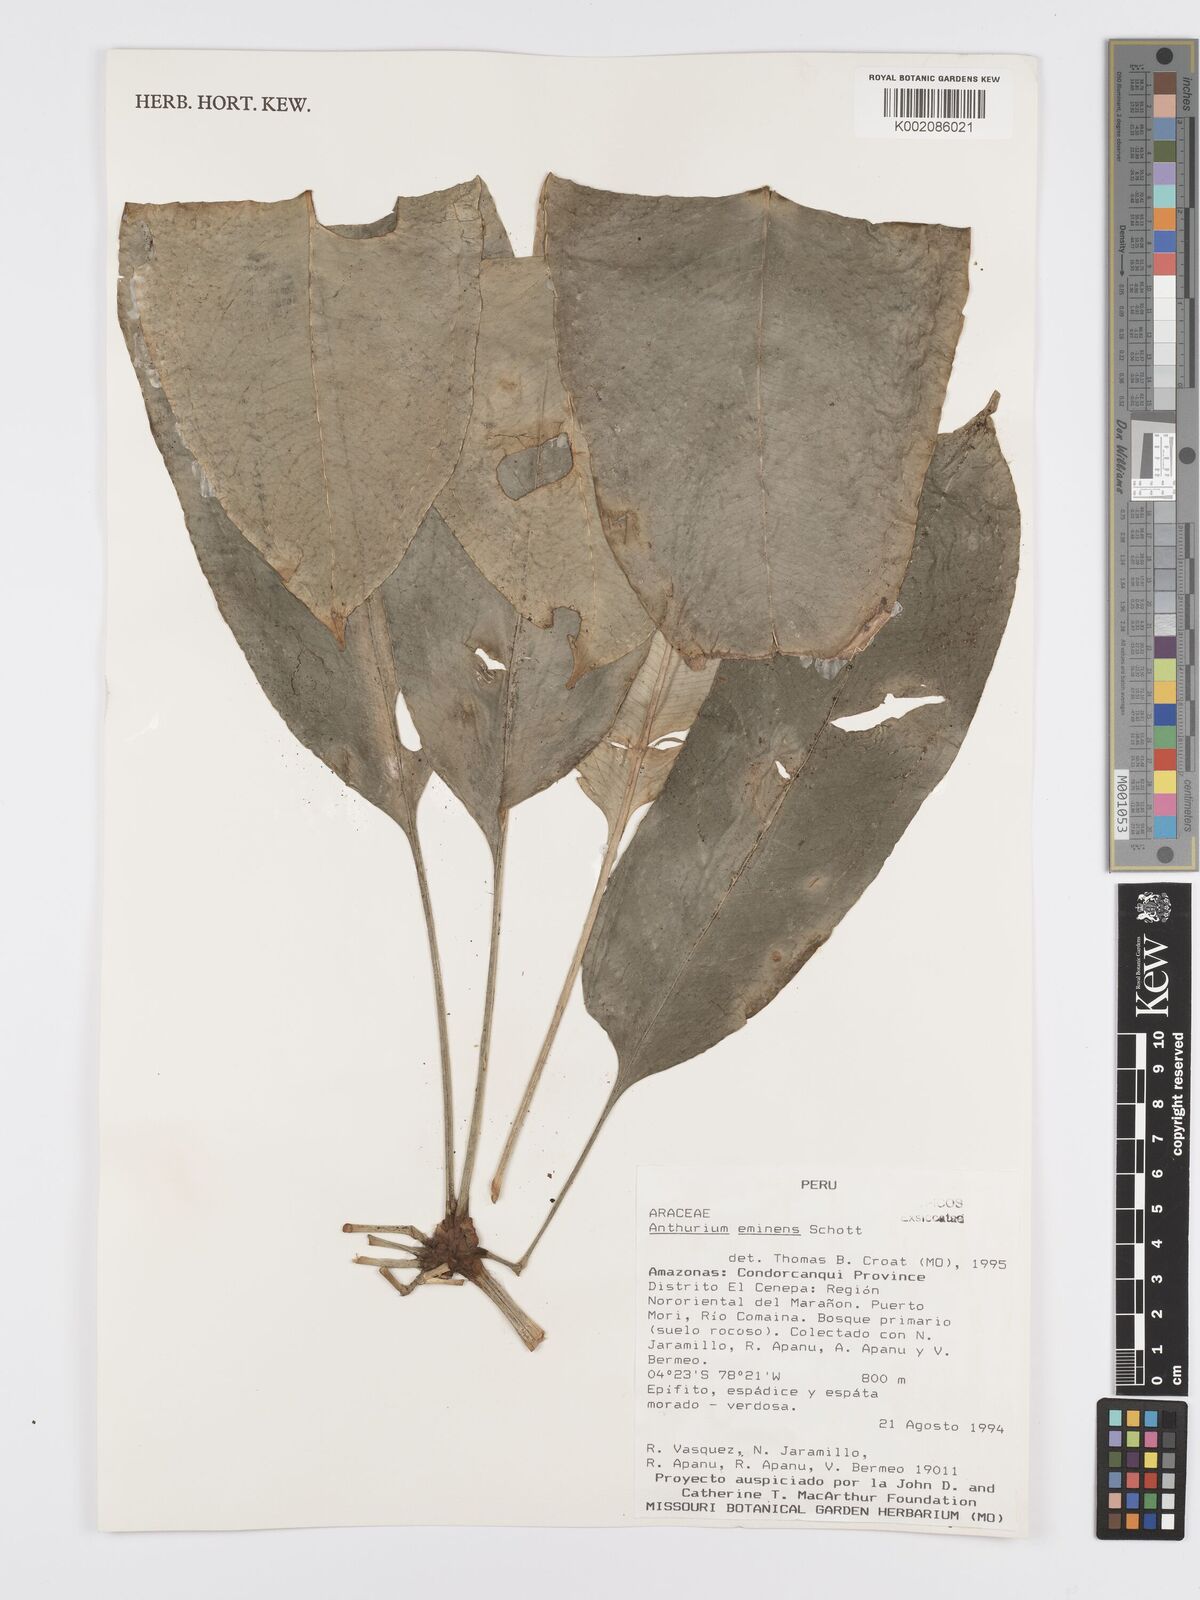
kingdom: Plantae
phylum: Tracheophyta
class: Liliopsida
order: Alismatales
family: Araceae
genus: Anthurium
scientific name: Anthurium eminens
